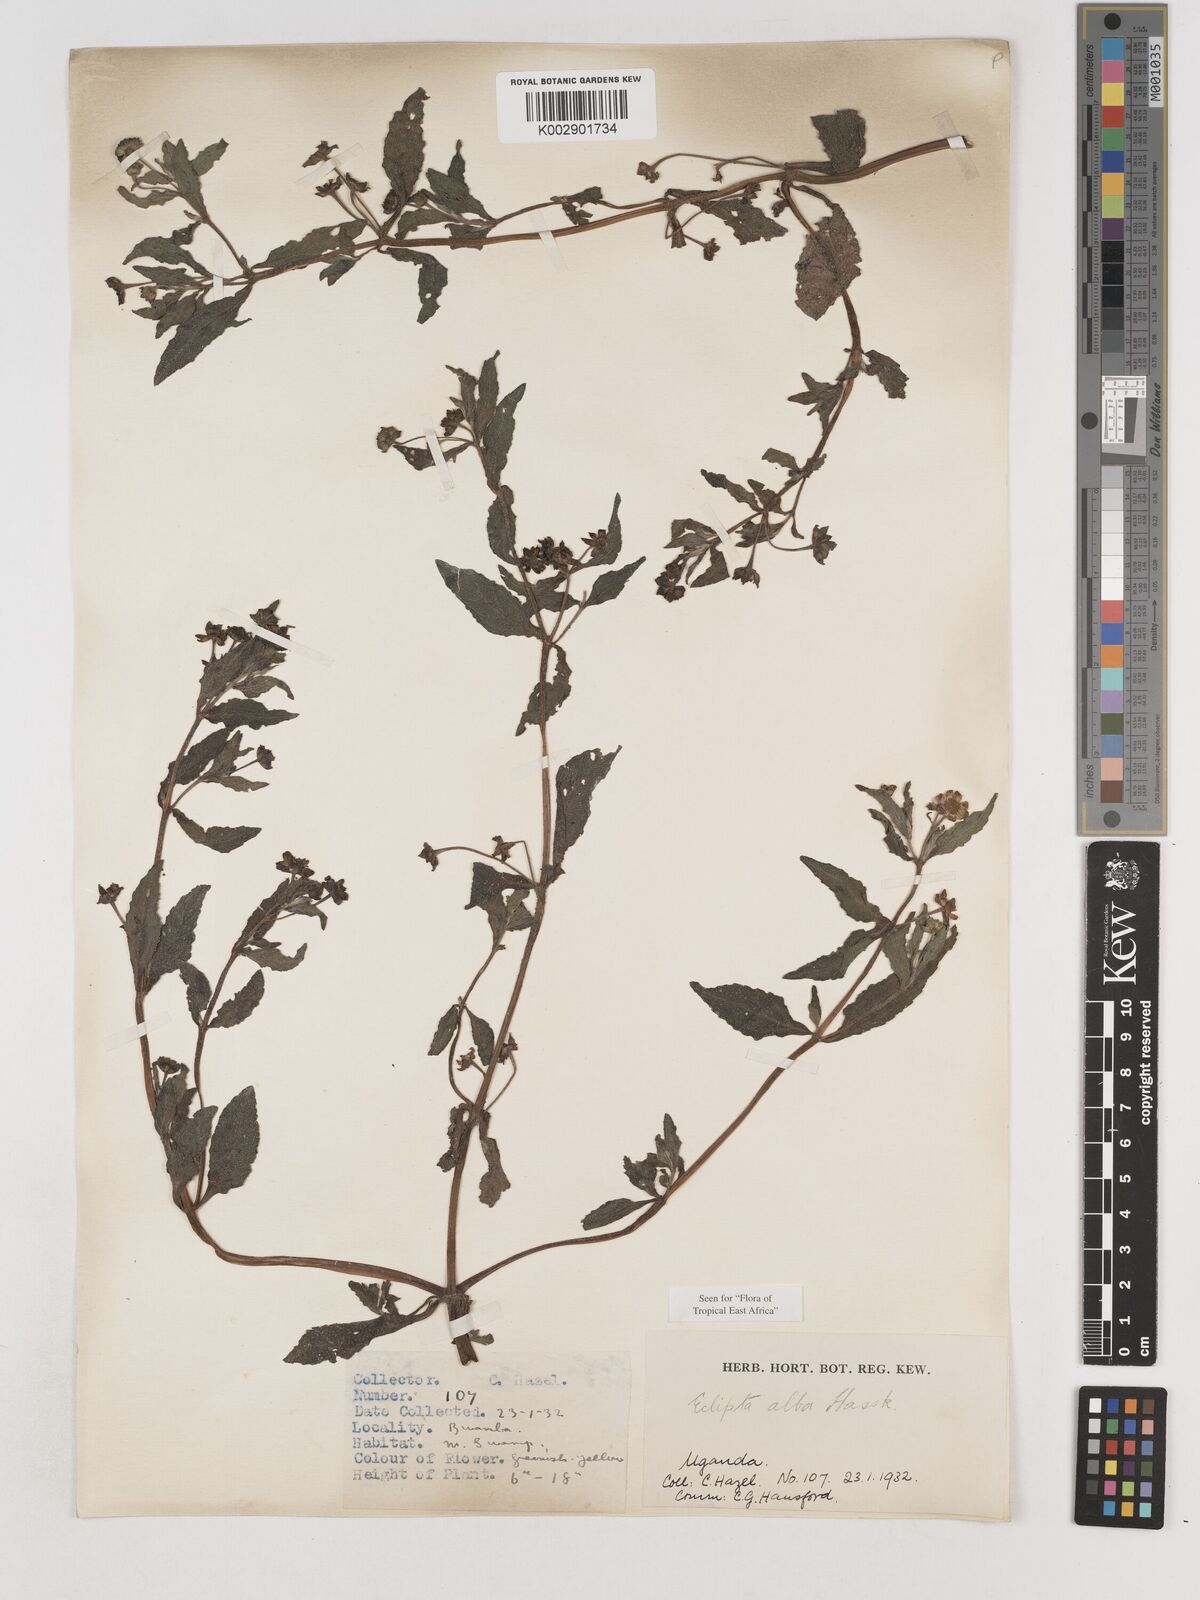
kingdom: Plantae
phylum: Tracheophyta
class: Magnoliopsida
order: Asterales
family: Asteraceae
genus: Eclipta
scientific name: Eclipta alba
